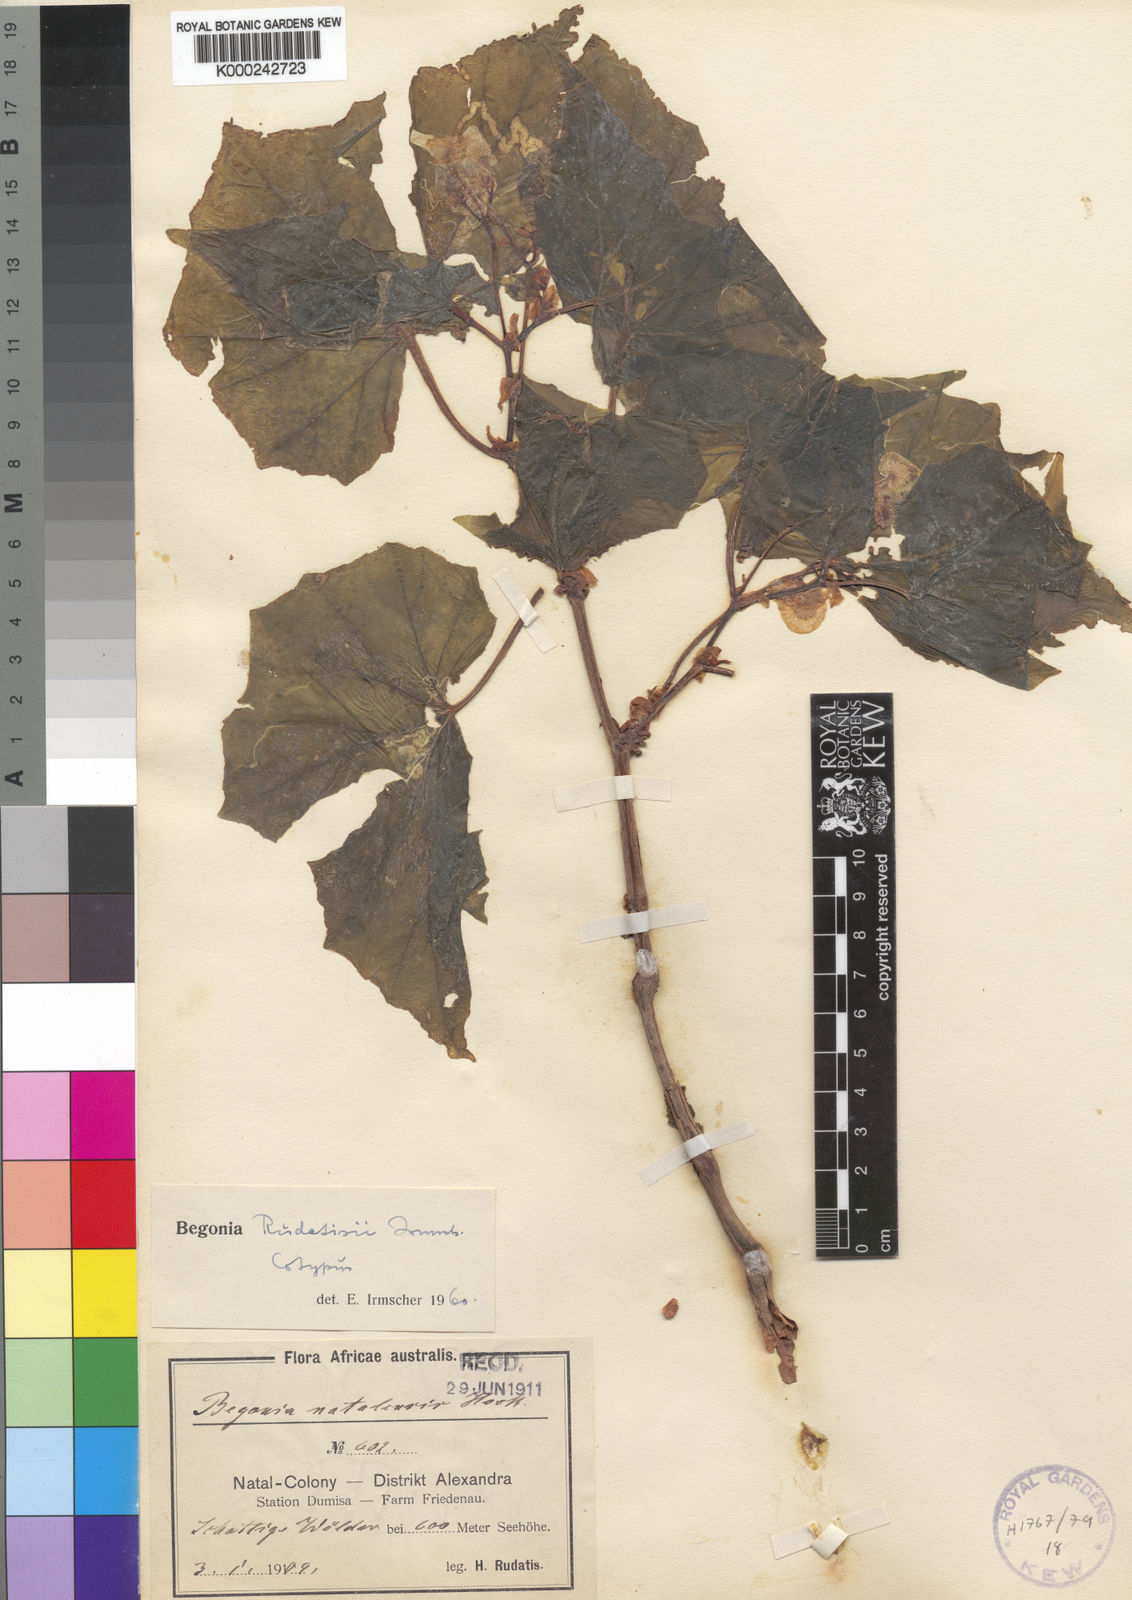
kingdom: Plantae
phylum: Tracheophyta
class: Magnoliopsida
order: Cucurbitales
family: Begoniaceae
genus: Begonia
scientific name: Begonia homonyma
